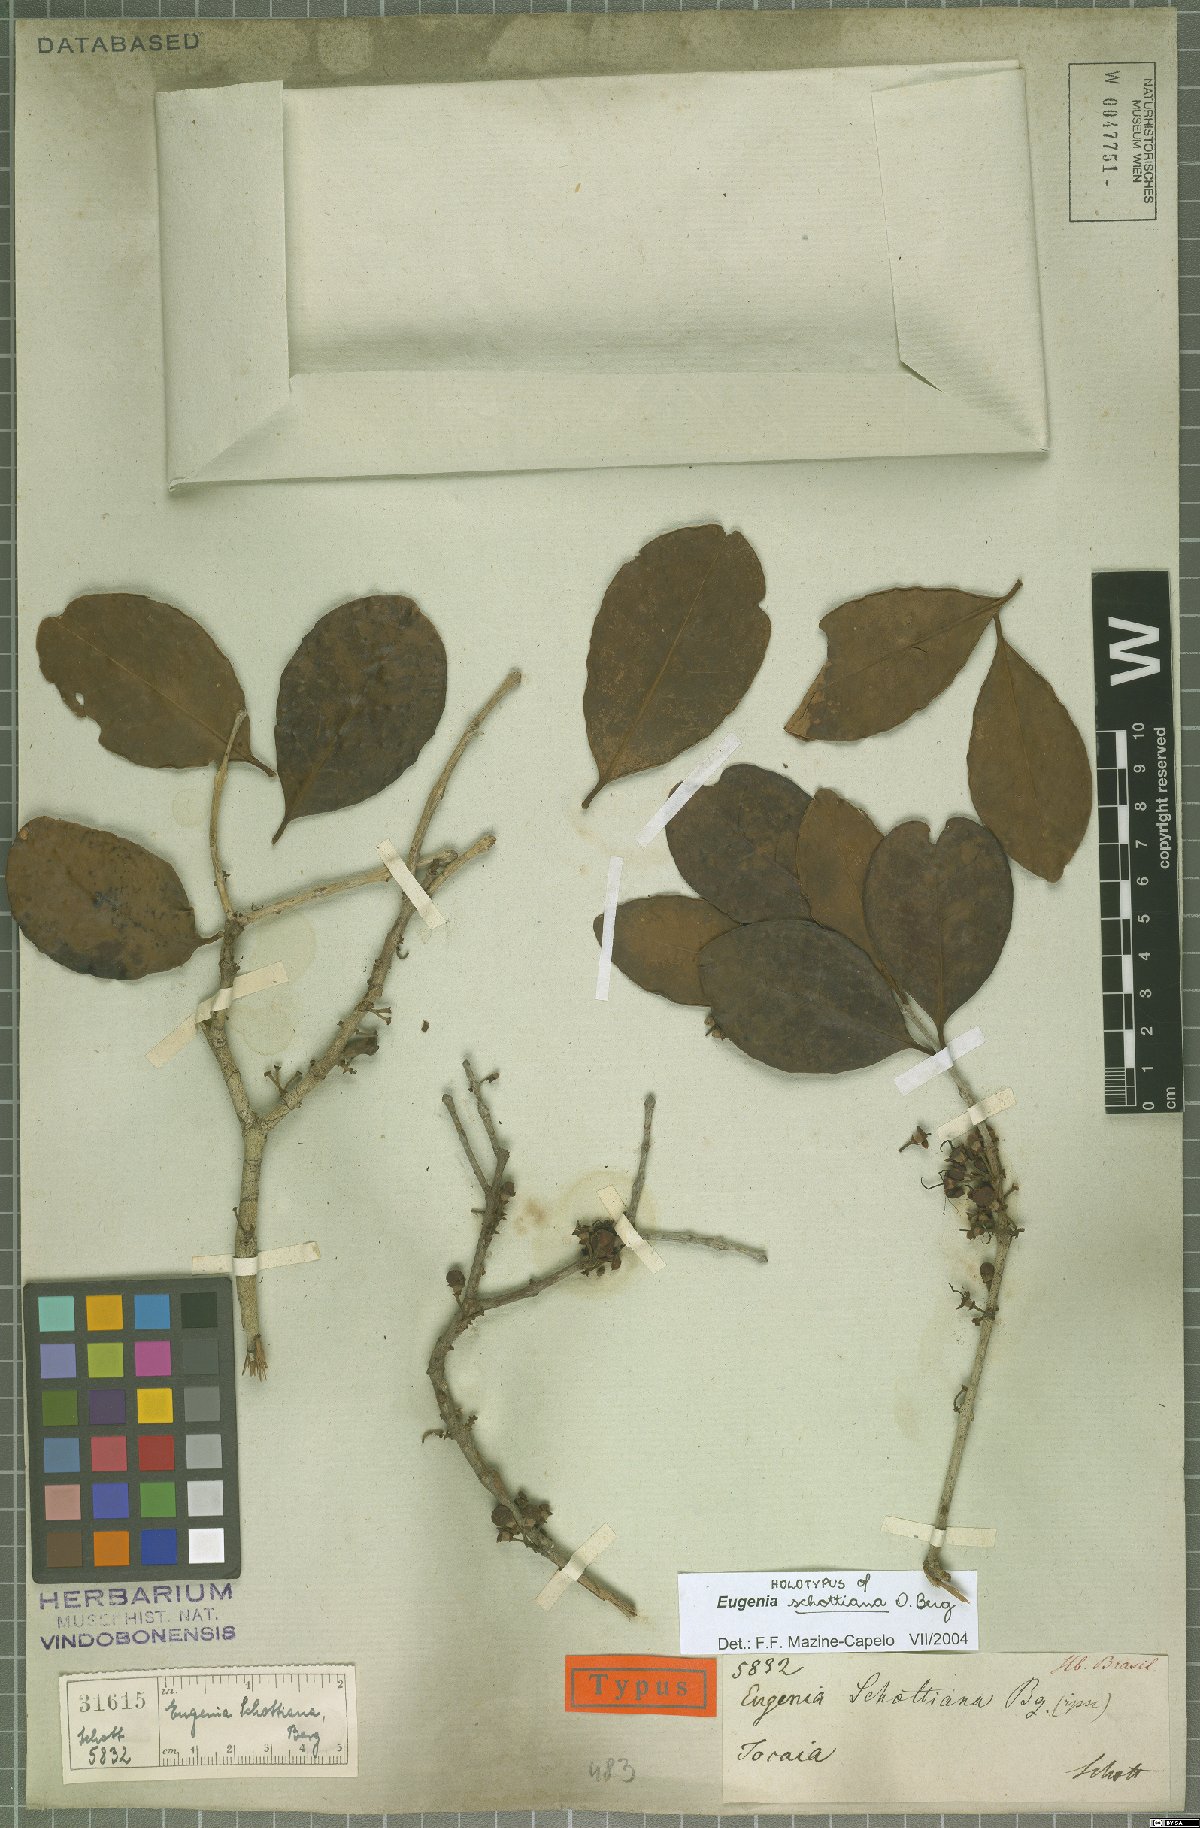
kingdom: Plantae
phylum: Tracheophyta
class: Magnoliopsida
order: Myrtales
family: Myrtaceae
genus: Eugenia
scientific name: Eugenia schottiana
